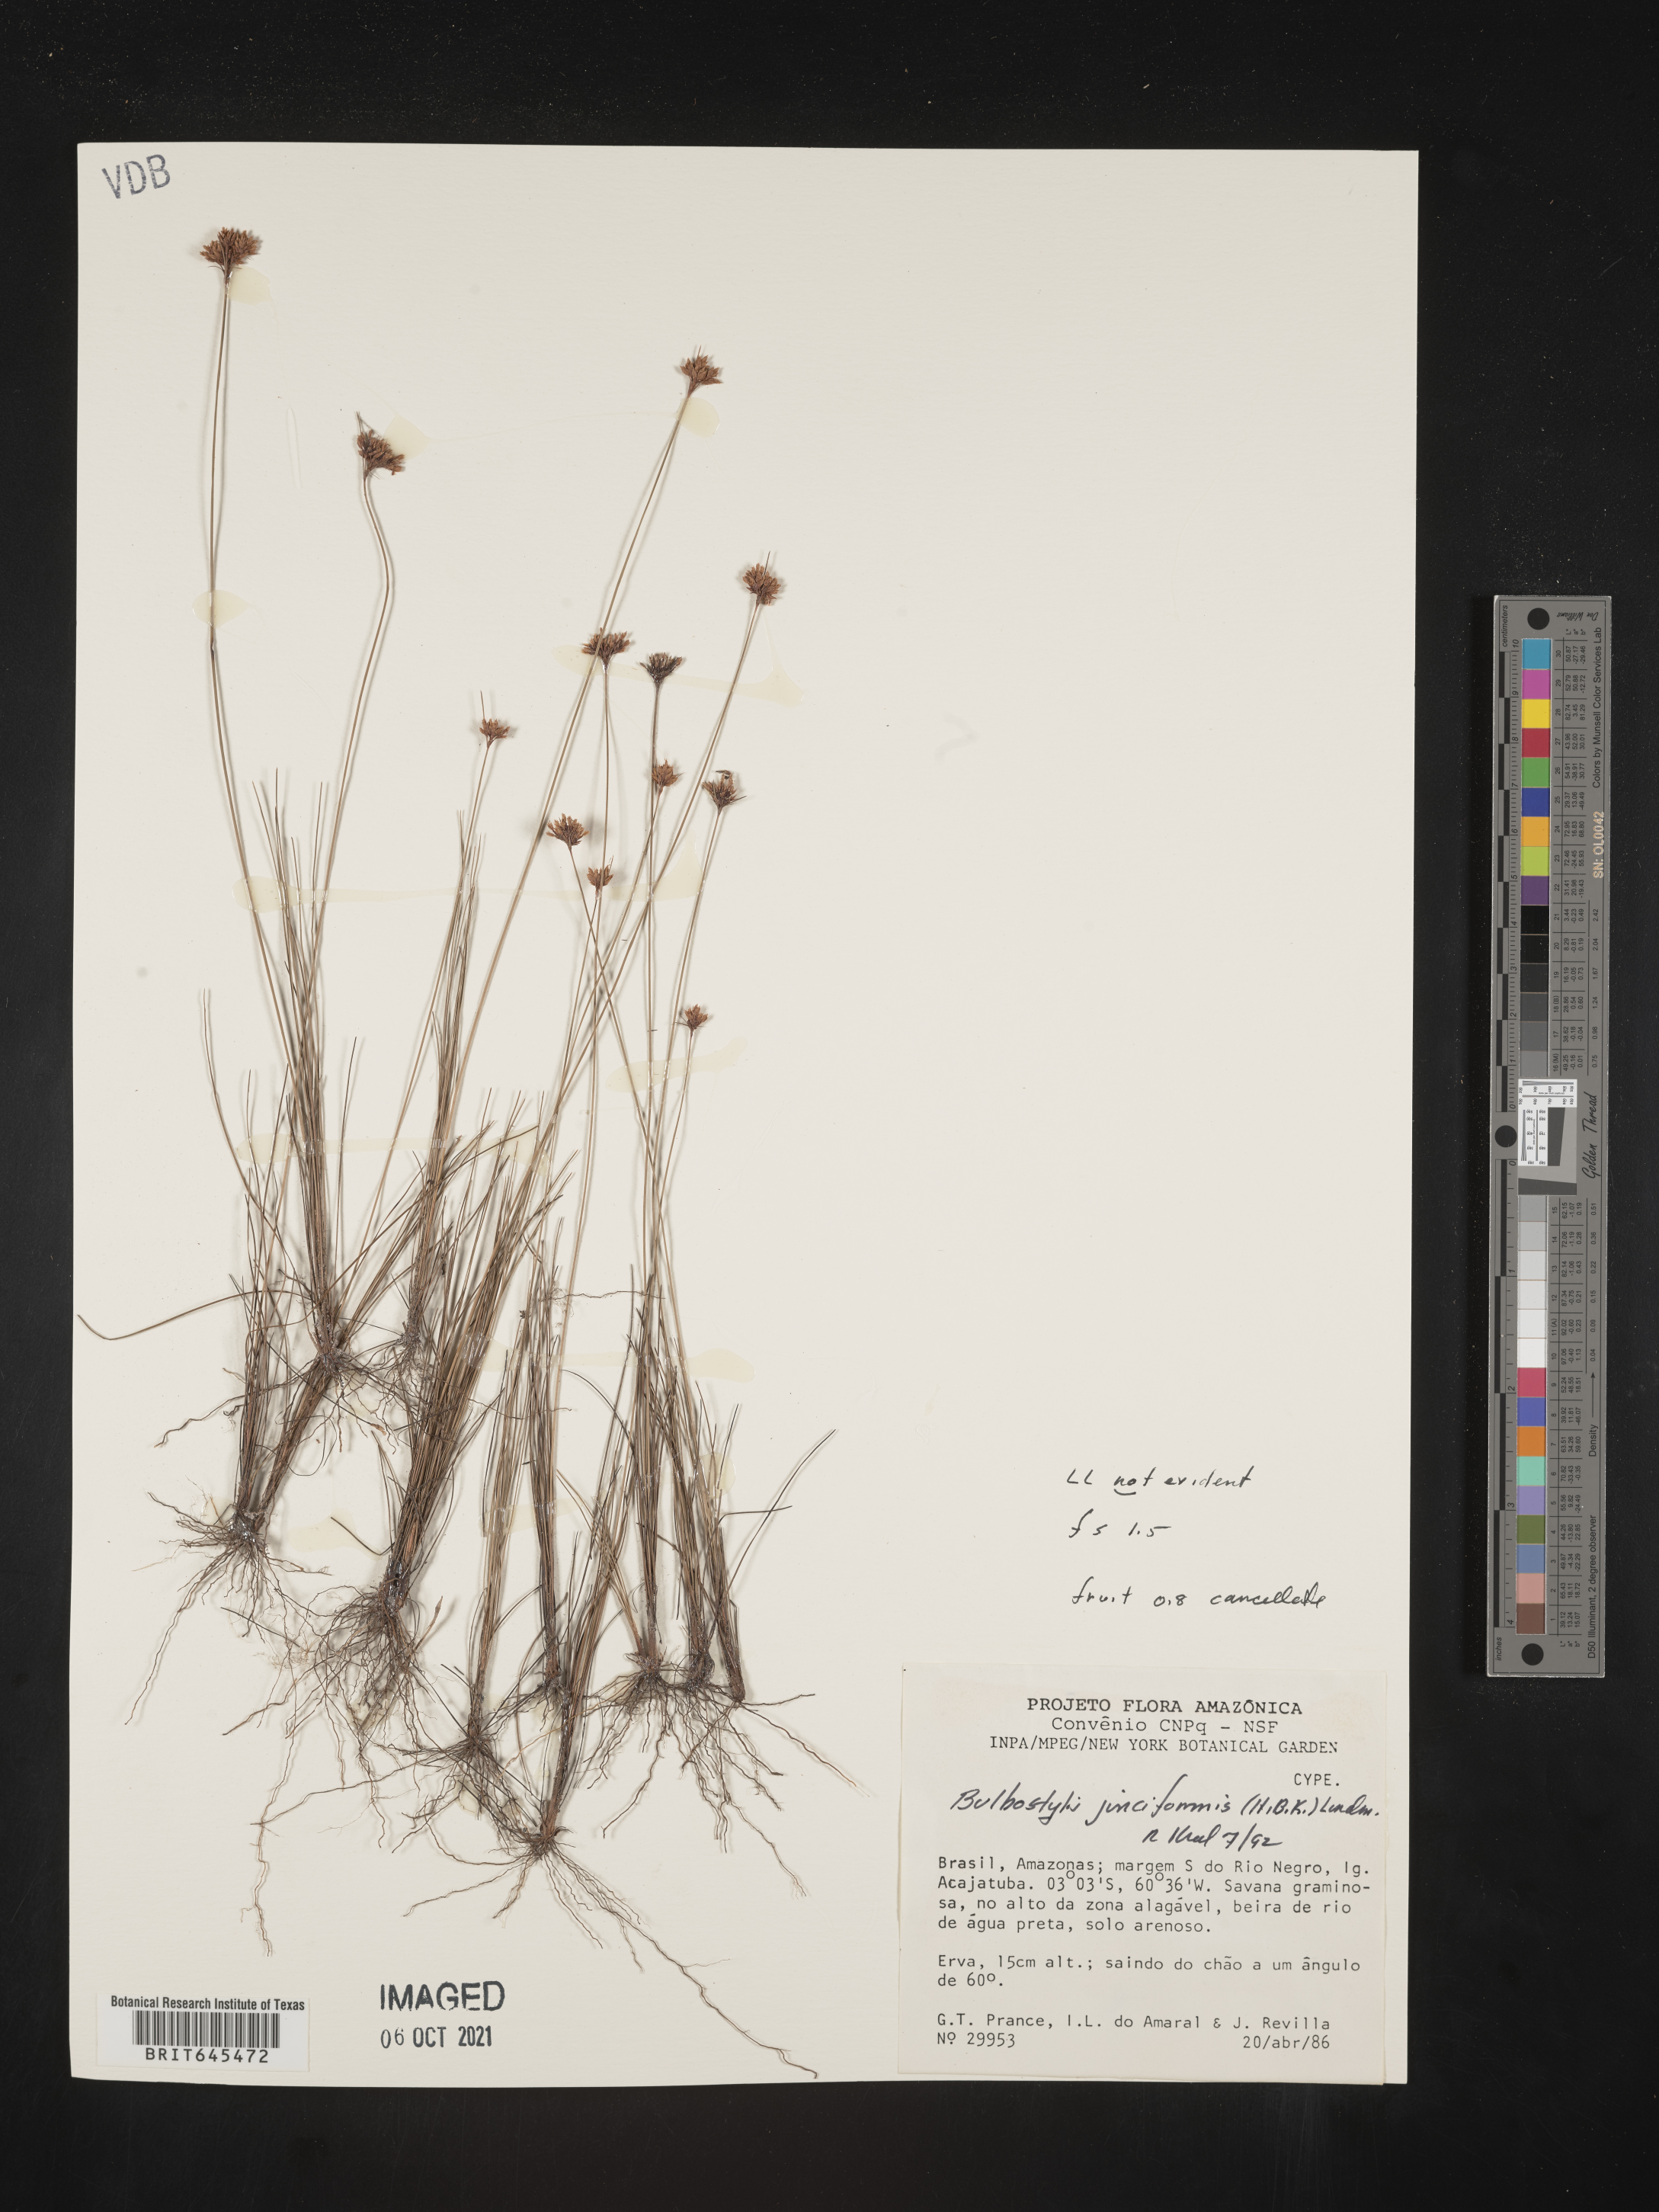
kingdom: Plantae
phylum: Tracheophyta
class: Liliopsida
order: Poales
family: Cyperaceae
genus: Bulbostylis
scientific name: Bulbostylis junciformis
